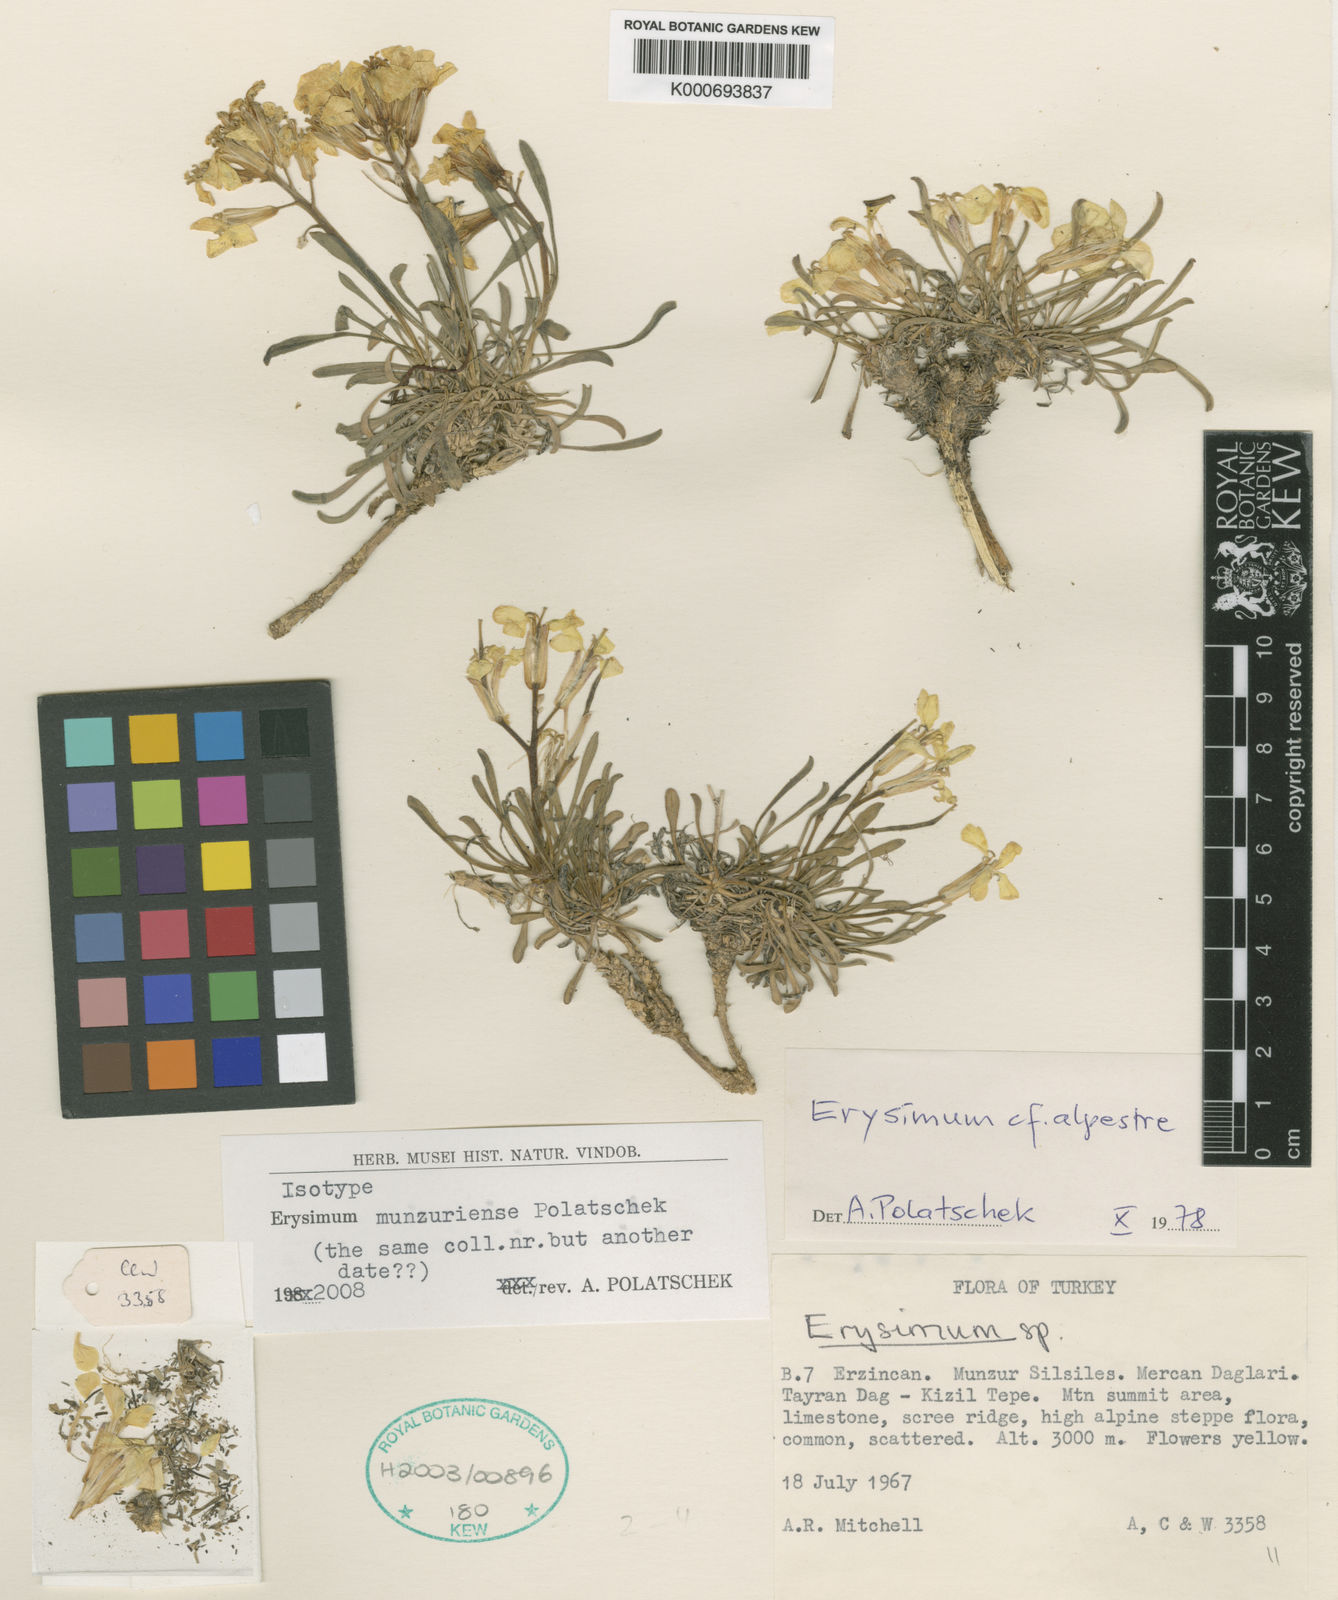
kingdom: Plantae
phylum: Tracheophyta
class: Magnoliopsida
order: Brassicales
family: Brassicaceae
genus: Erysimum
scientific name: Erysimum munzuriense
